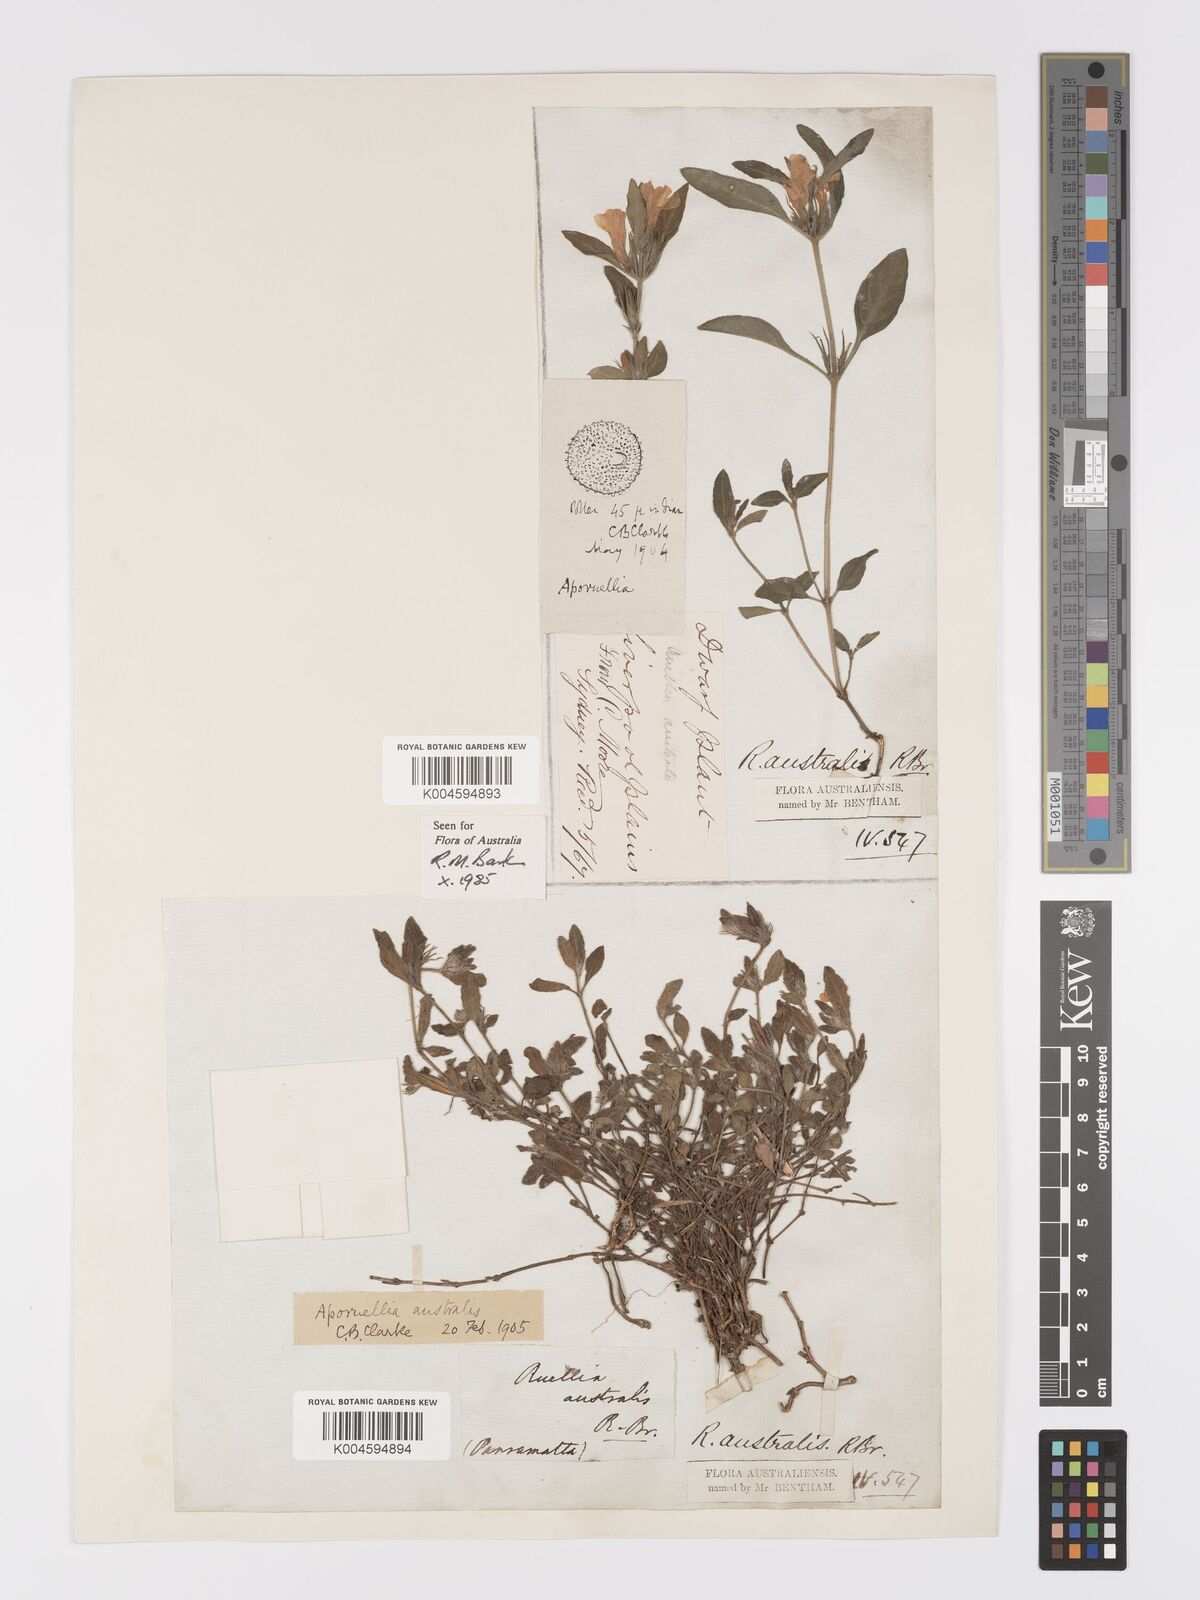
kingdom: Plantae
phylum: Tracheophyta
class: Magnoliopsida
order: Lamiales
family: Acanthaceae
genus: Brunoniella
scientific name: Brunoniella
